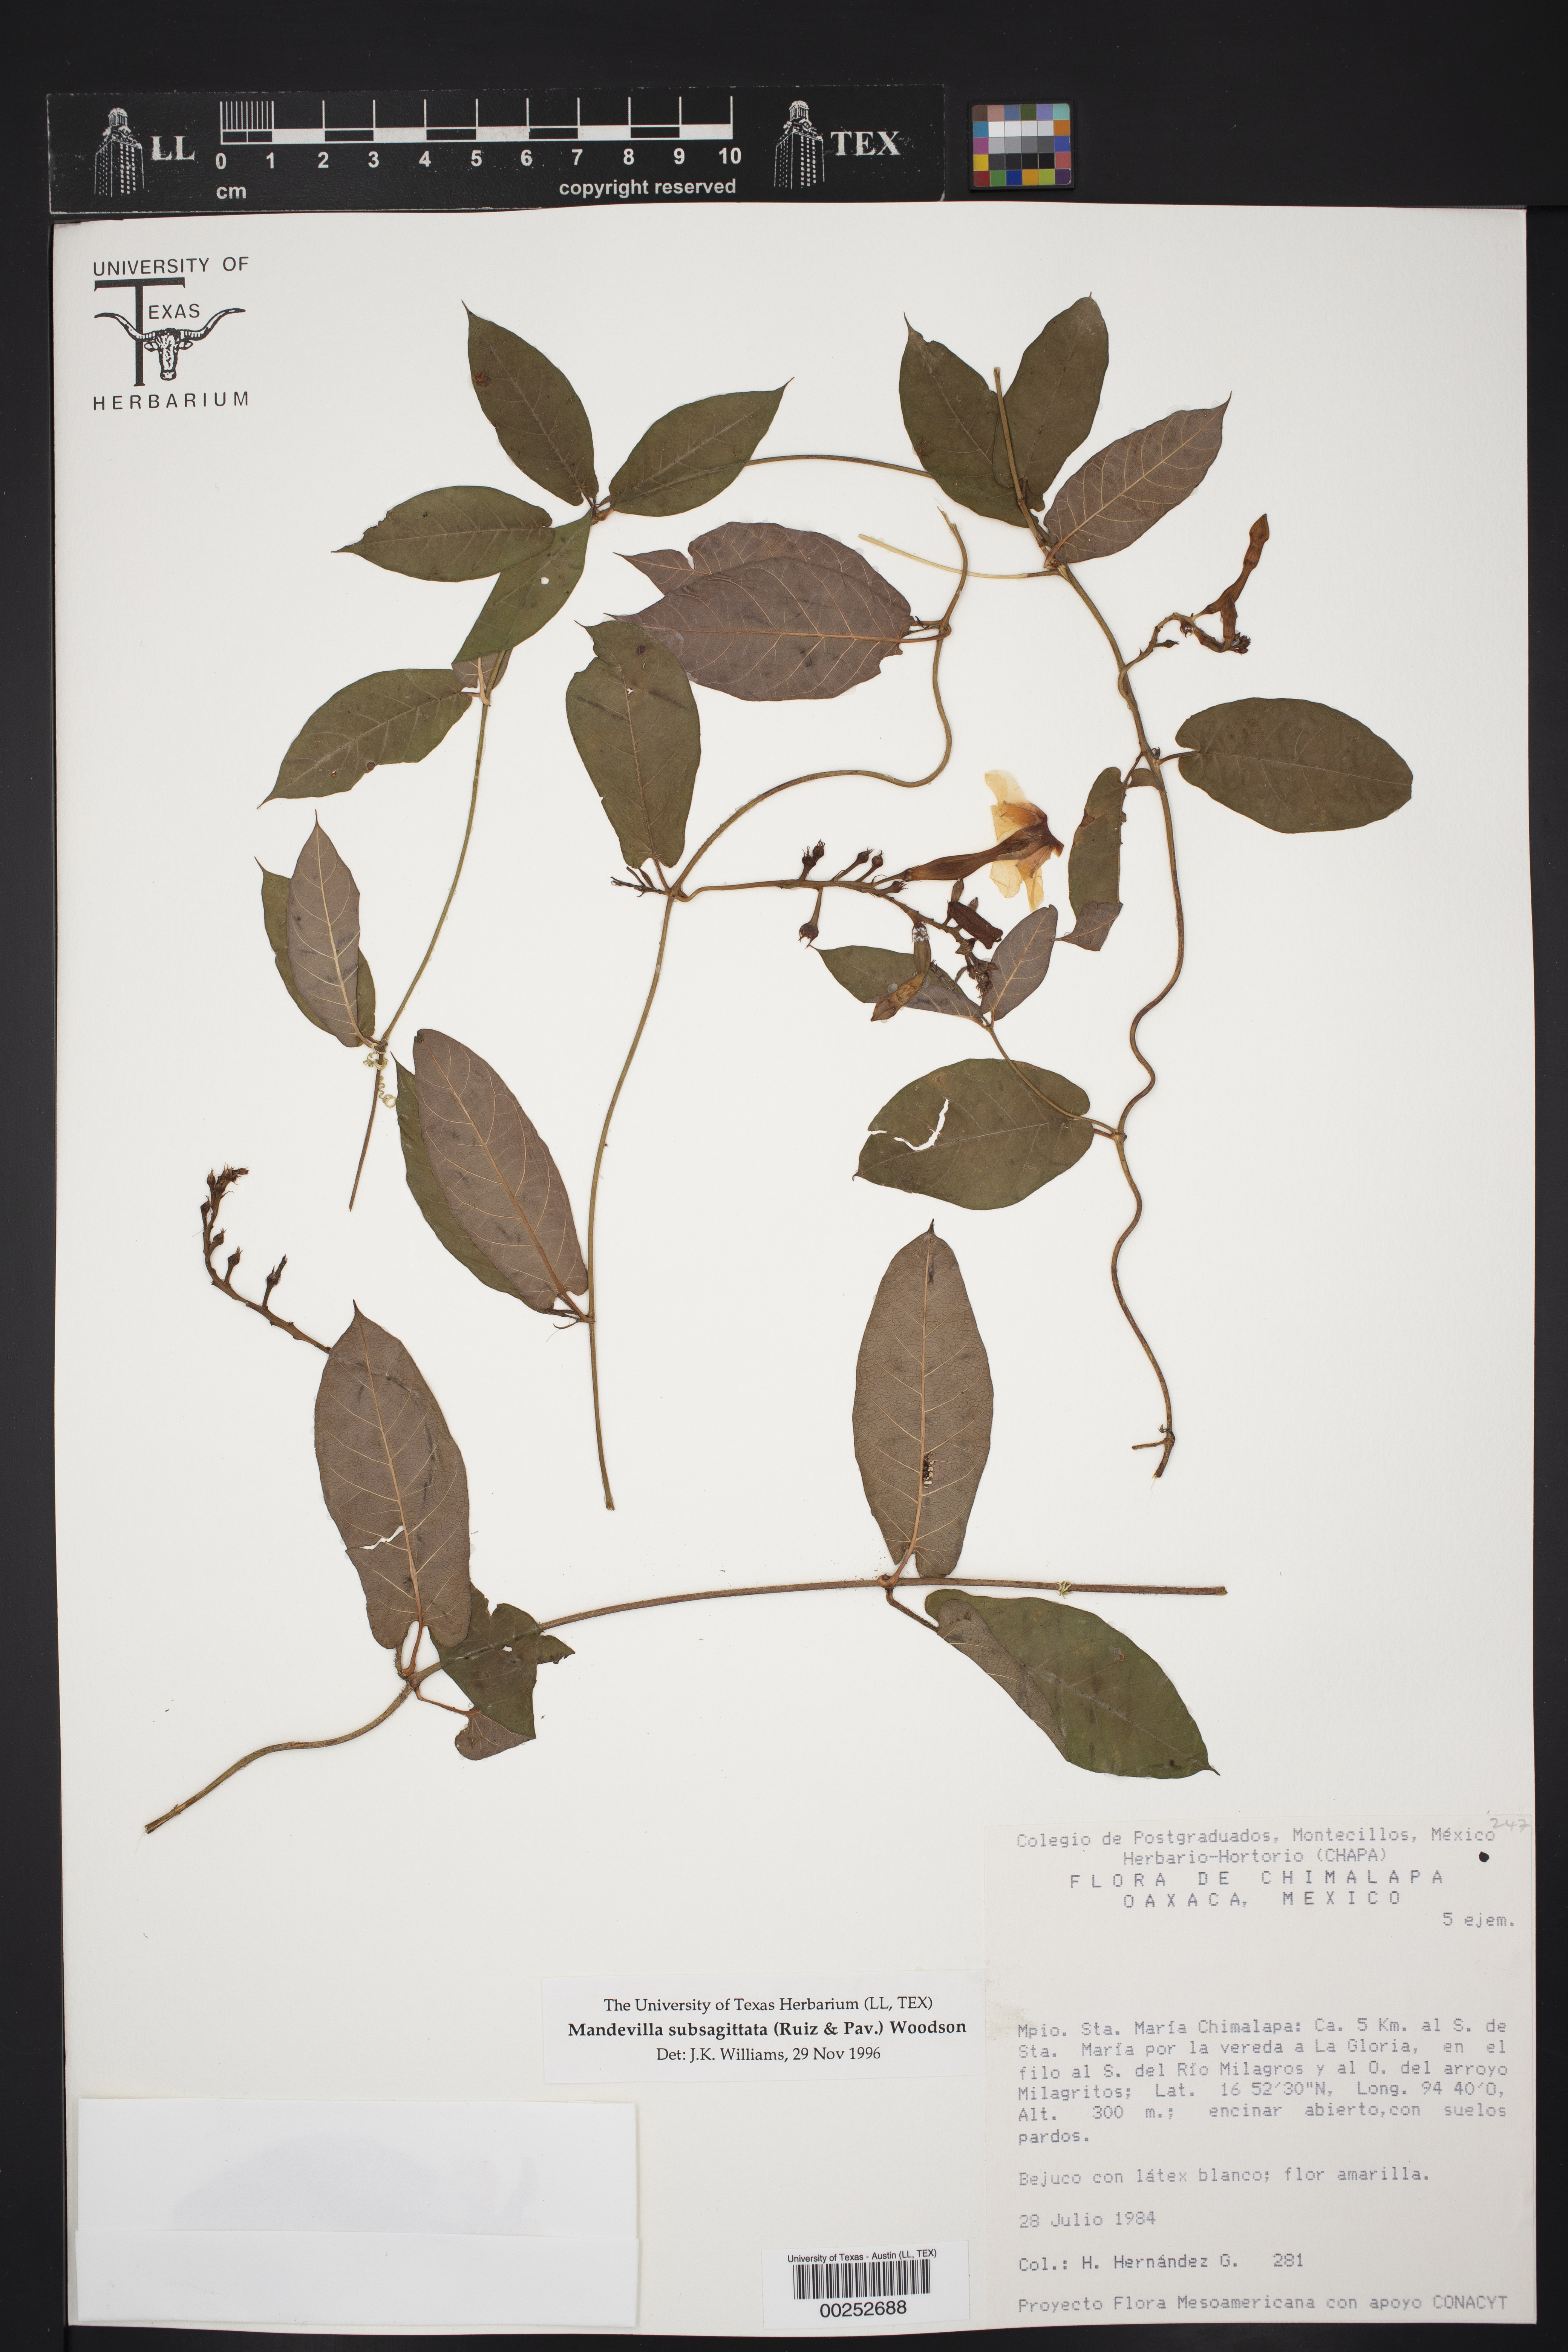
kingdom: Plantae
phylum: Tracheophyta
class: Magnoliopsida
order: Gentianales
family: Apocynaceae
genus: Mandevilla
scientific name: Mandevilla subsagittata
